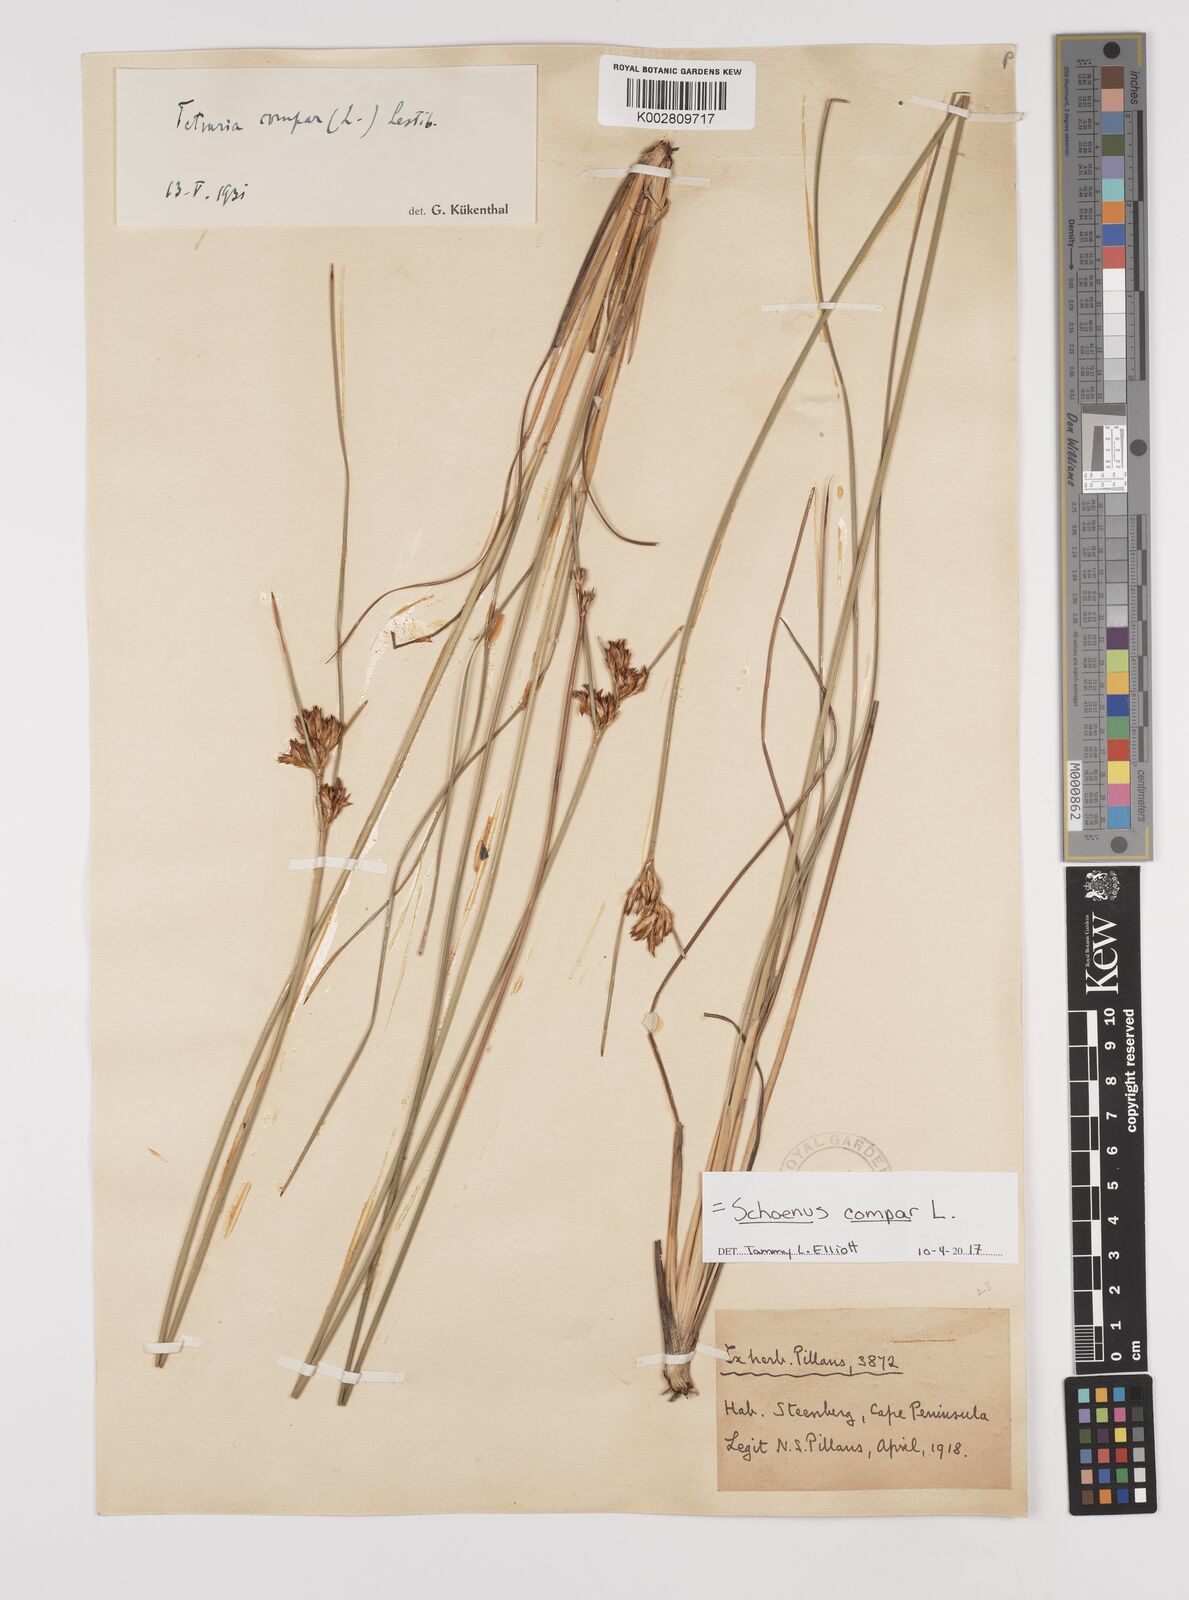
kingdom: Plantae
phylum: Tracheophyta
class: Liliopsida
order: Poales
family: Cyperaceae
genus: Schoenus
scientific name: Schoenus compar
